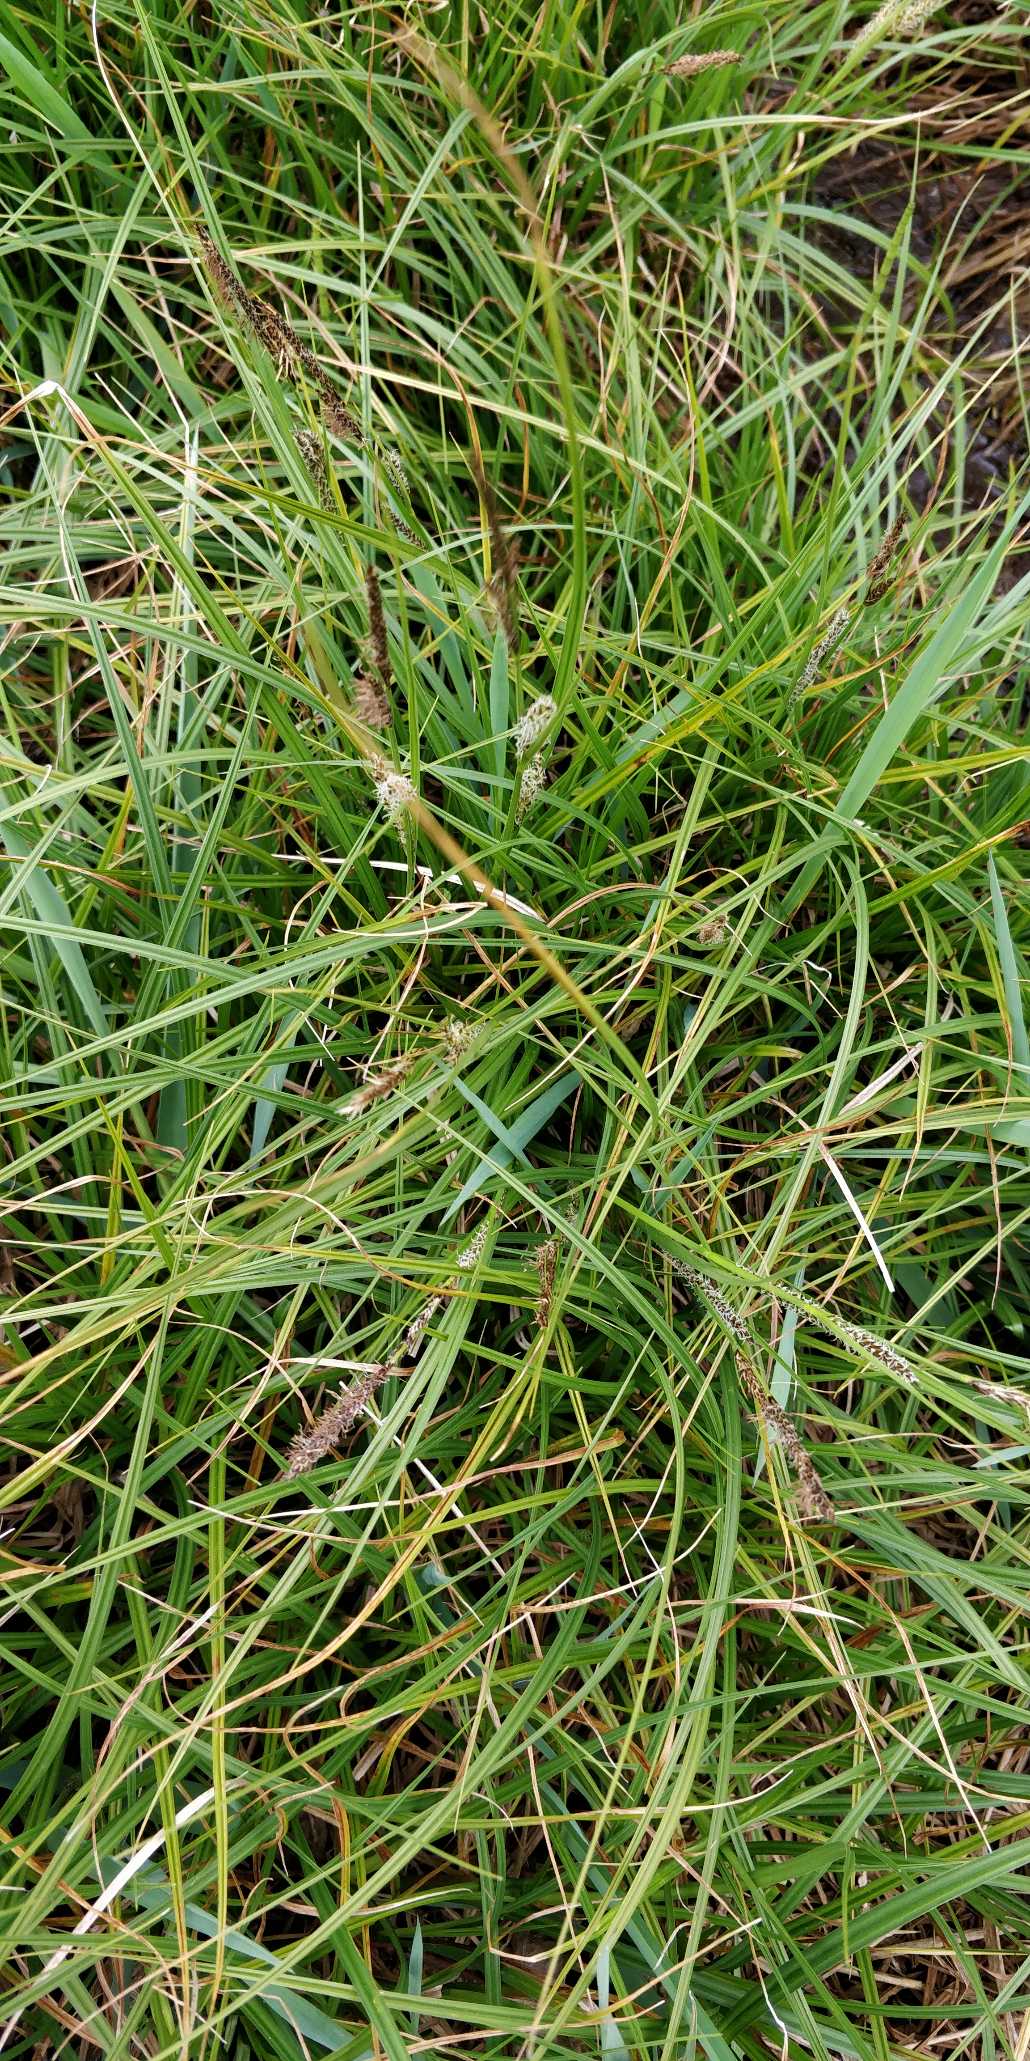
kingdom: Plantae
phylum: Tracheophyta
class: Liliopsida
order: Poales
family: Cyperaceae
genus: Carex
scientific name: Carex acutiformis
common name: Kær-star
